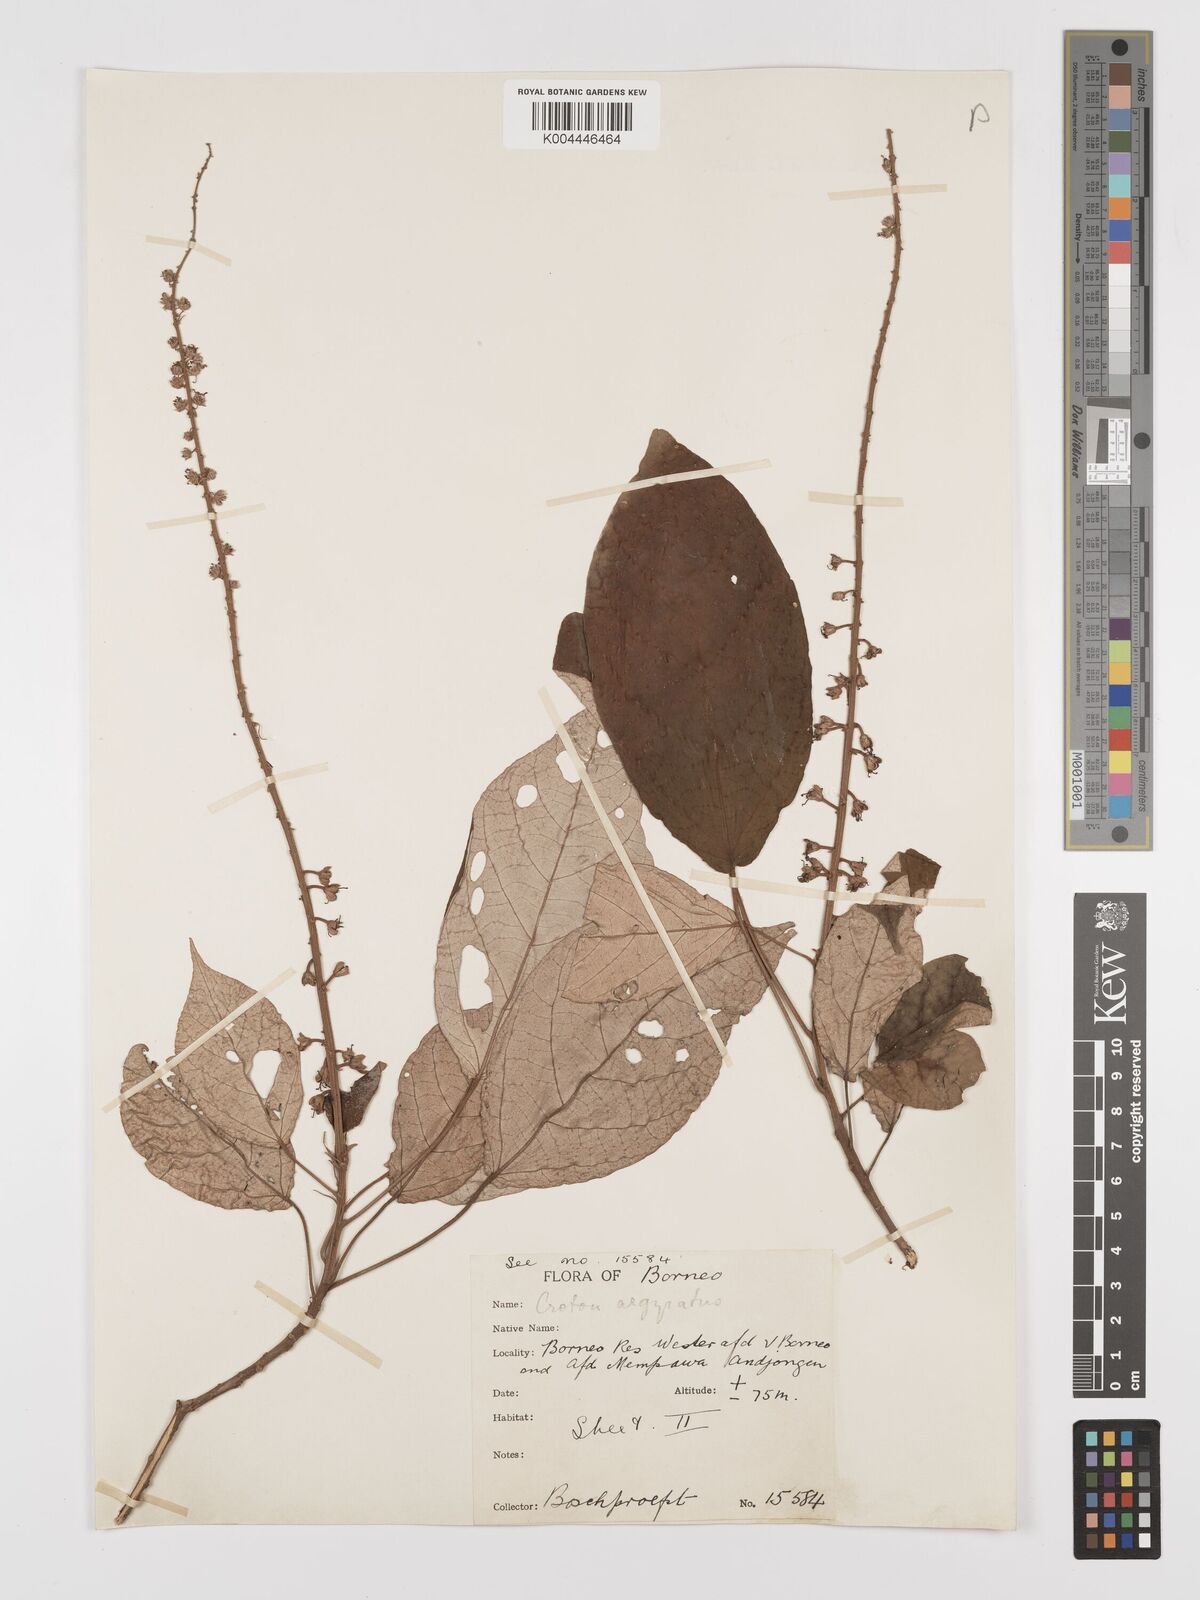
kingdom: Plantae
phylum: Tracheophyta
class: Magnoliopsida
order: Malpighiales
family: Euphorbiaceae
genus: Croton
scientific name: Croton argyratus
